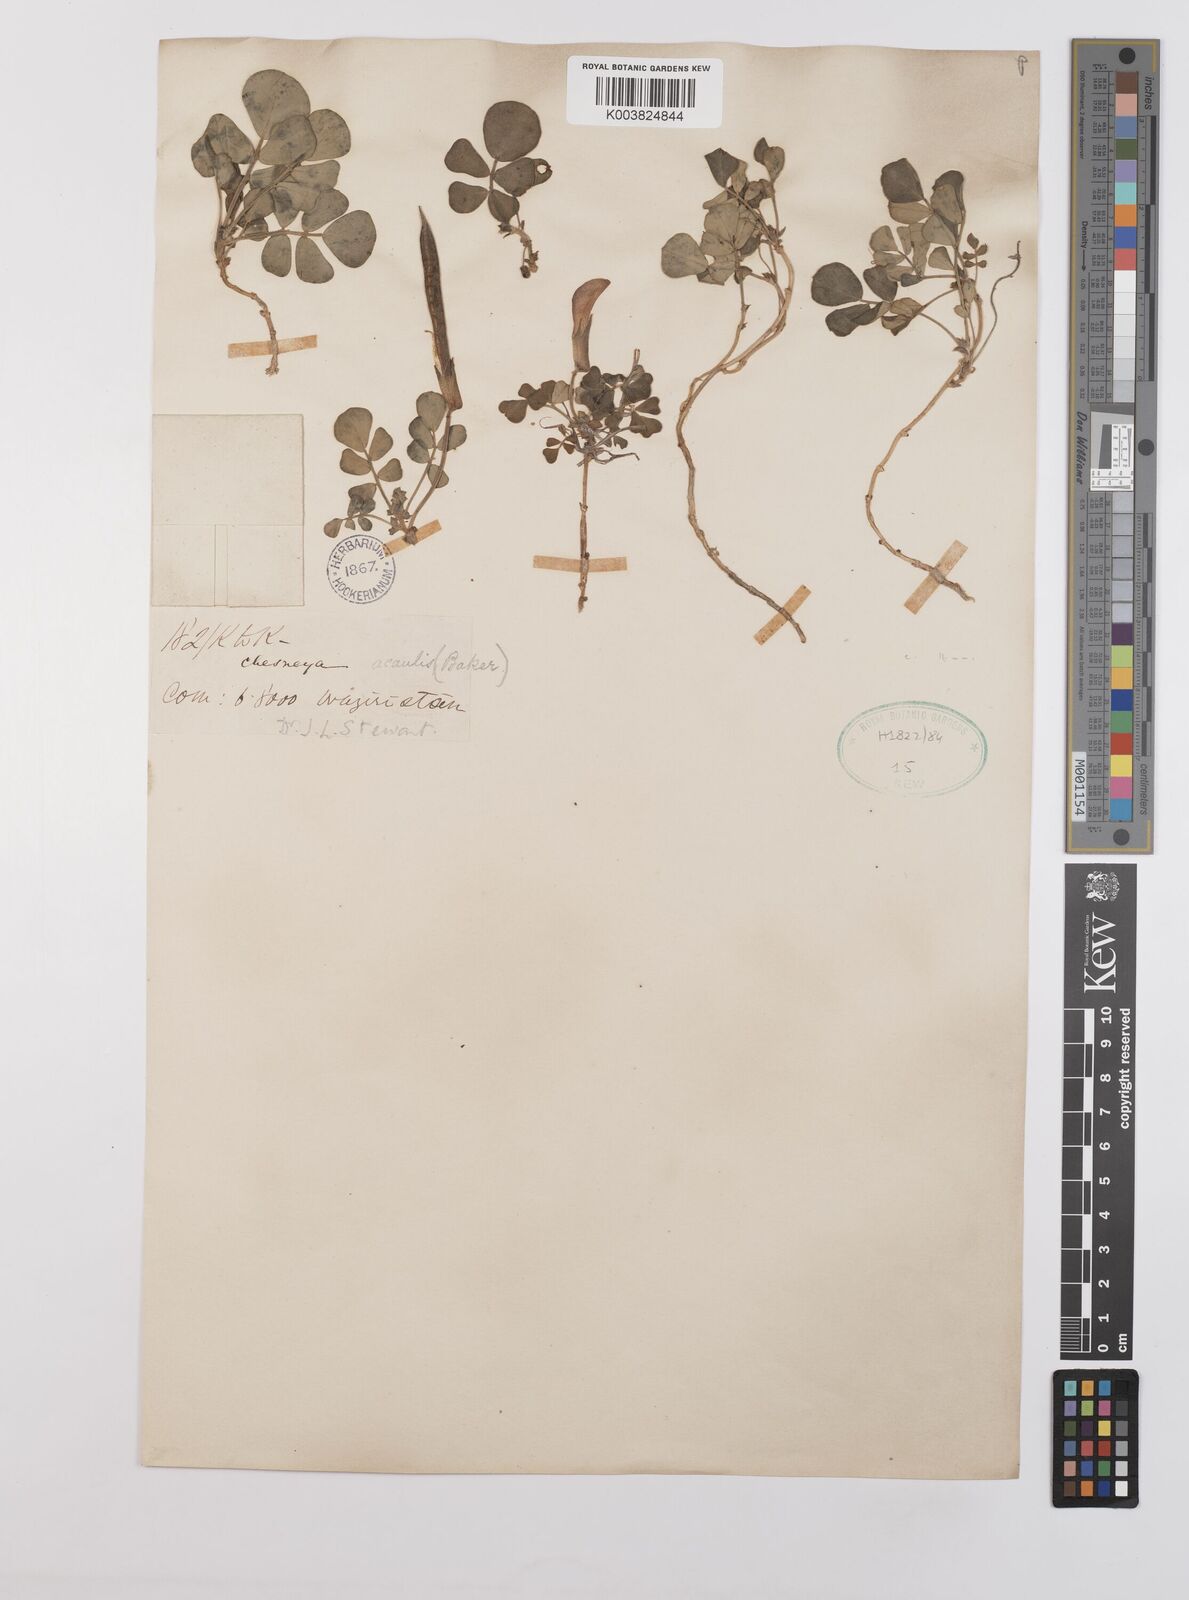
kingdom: Plantae
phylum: Tracheophyta
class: Magnoliopsida
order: Fabales
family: Fabaceae
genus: Chesneya
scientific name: Chesneya acaulis
